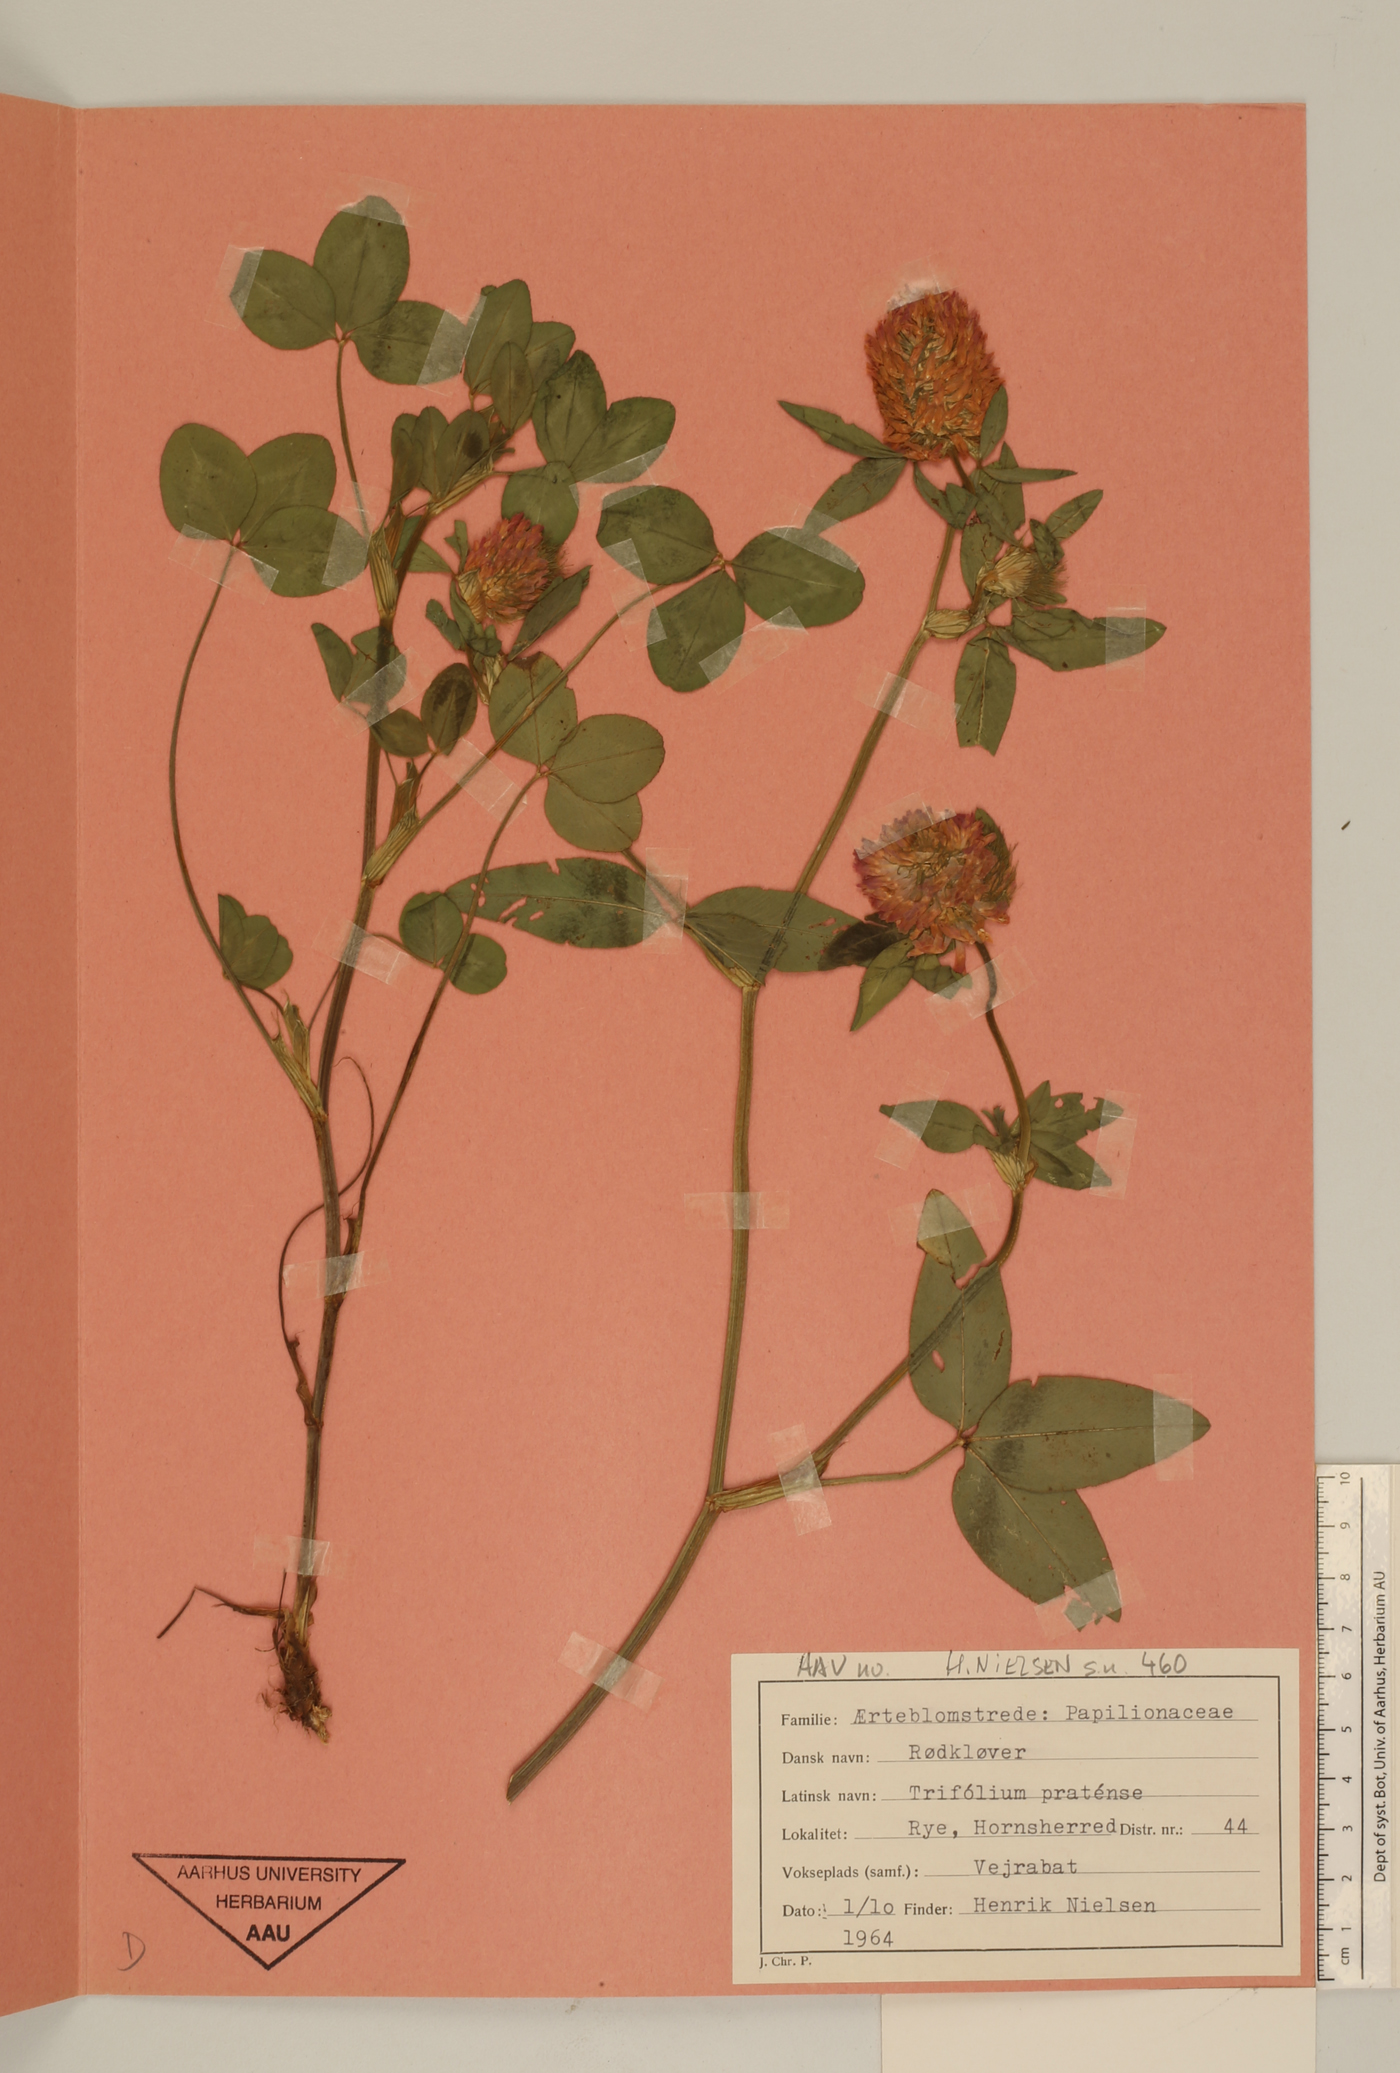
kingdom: Plantae
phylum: Tracheophyta
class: Magnoliopsida
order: Fabales
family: Fabaceae
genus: Trifolium
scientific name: Trifolium pratense
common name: Red clover
